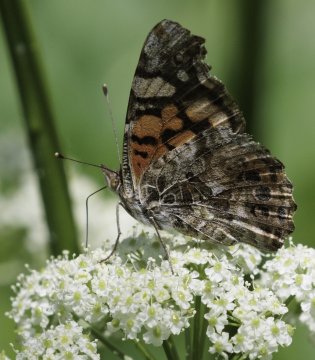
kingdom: Animalia
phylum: Arthropoda
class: Insecta
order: Lepidoptera
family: Nymphalidae
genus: Vanessa
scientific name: Vanessa annabella
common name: West Coast Lady
